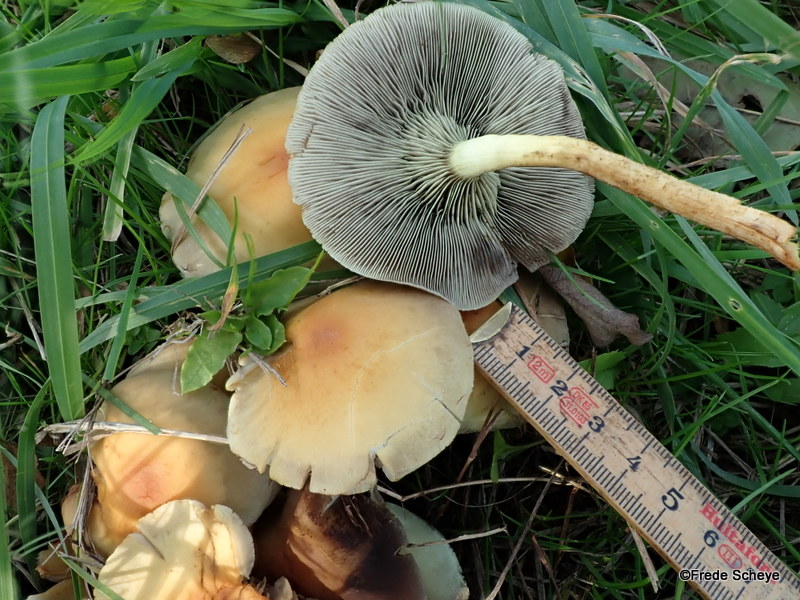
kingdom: Fungi
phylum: Basidiomycota
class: Agaricomycetes
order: Agaricales
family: Strophariaceae
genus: Hypholoma
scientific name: Hypholoma fasciculare
